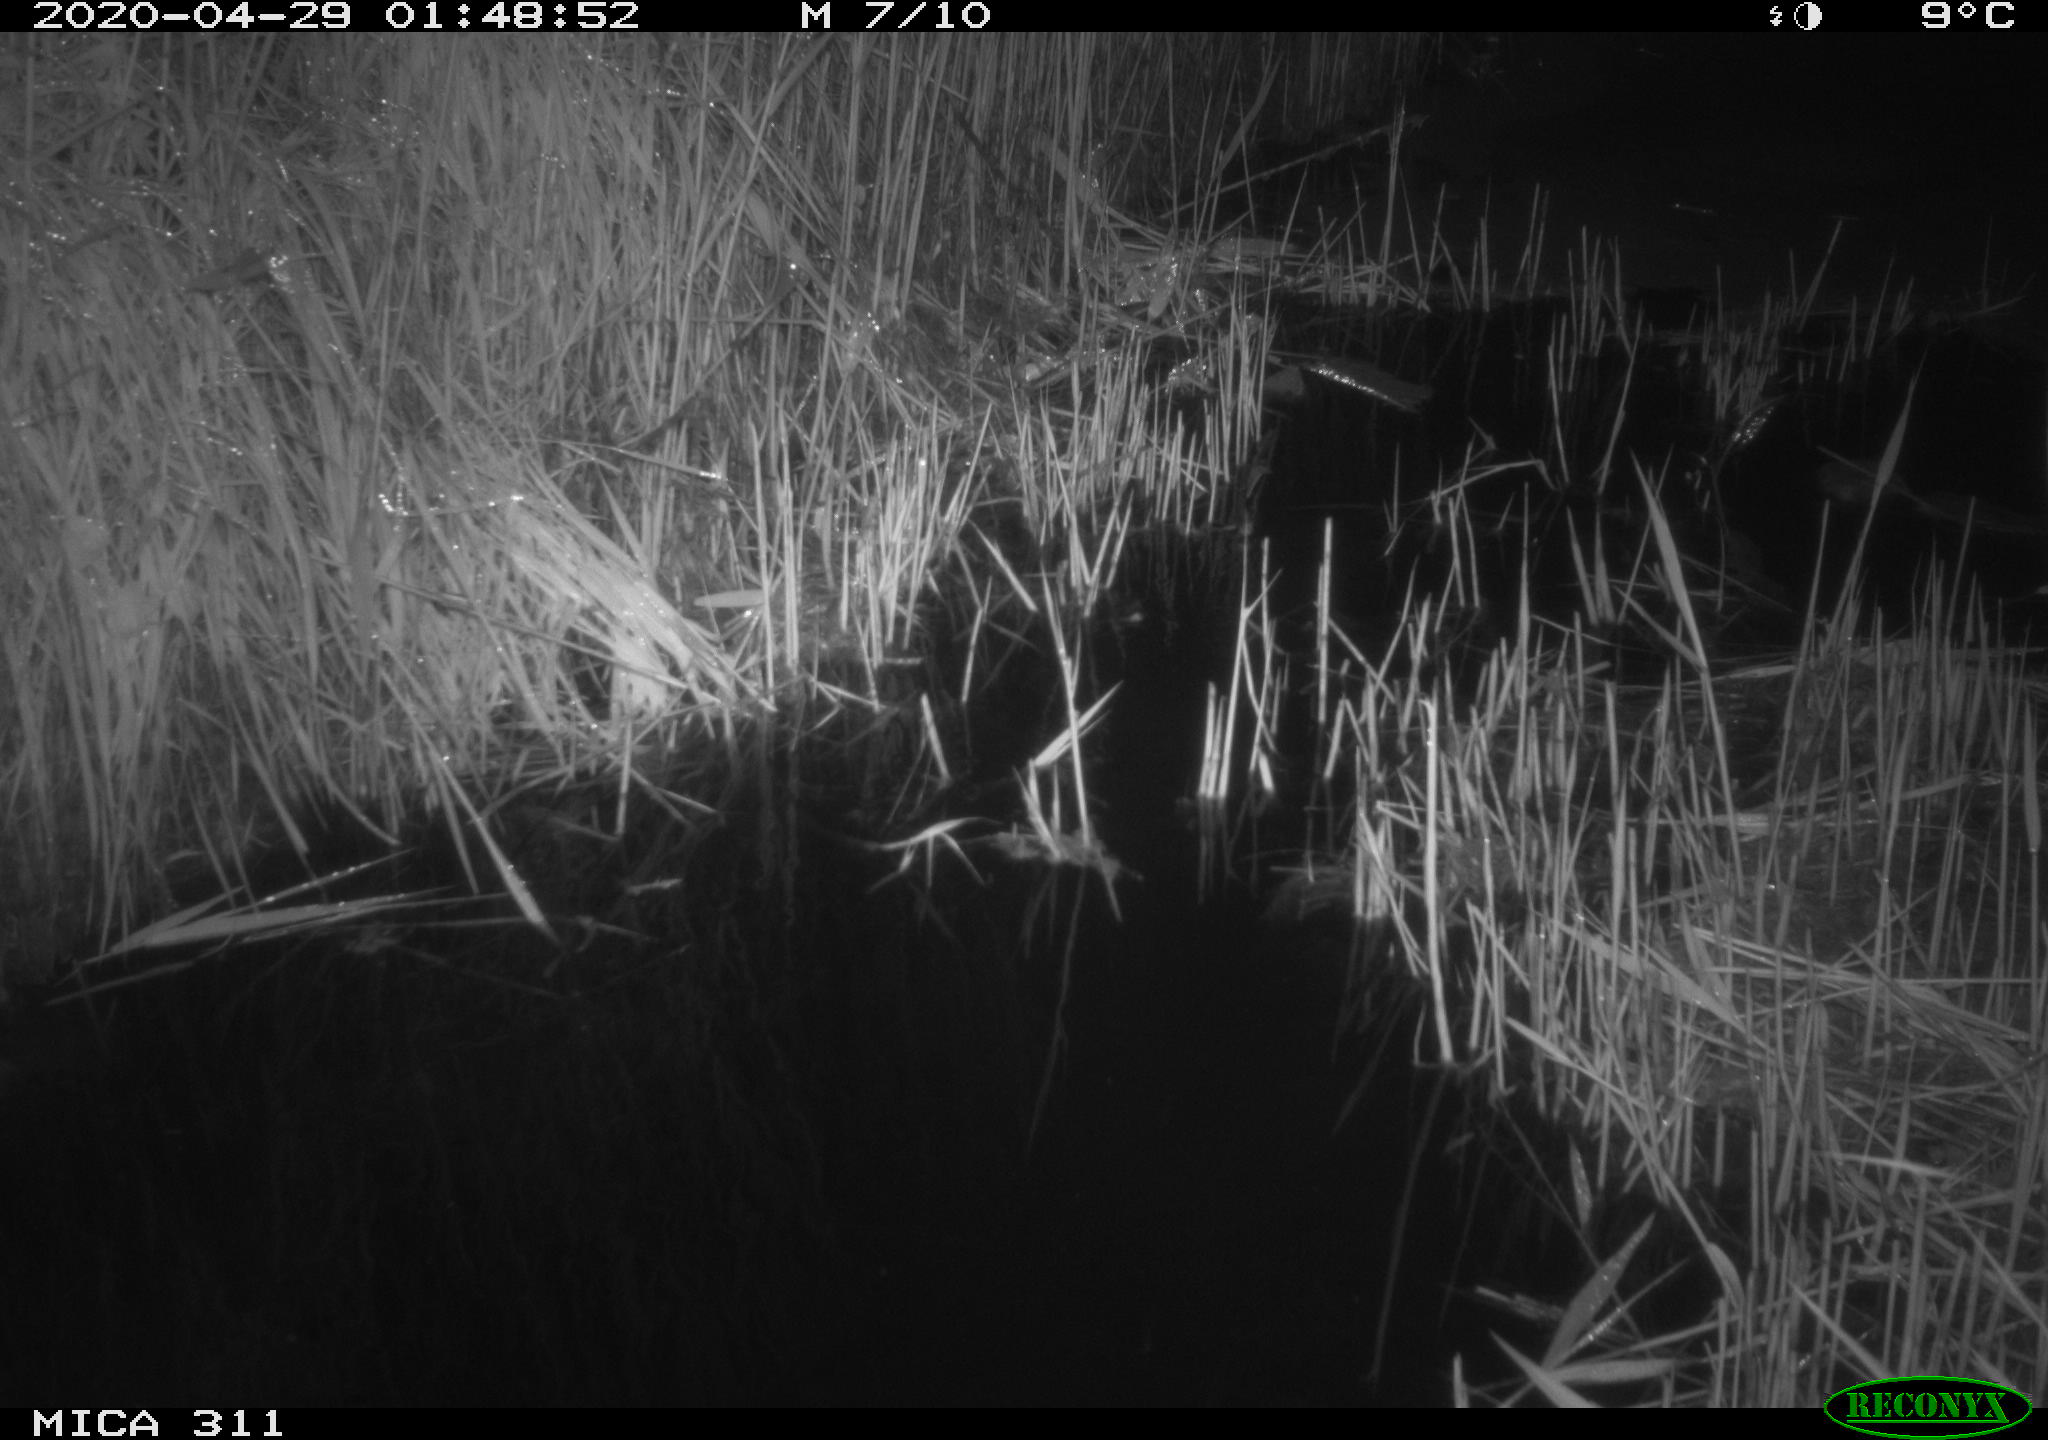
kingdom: Animalia
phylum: Chordata
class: Mammalia
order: Rodentia
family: Muridae
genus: Rattus
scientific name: Rattus norvegicus
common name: Brown rat
